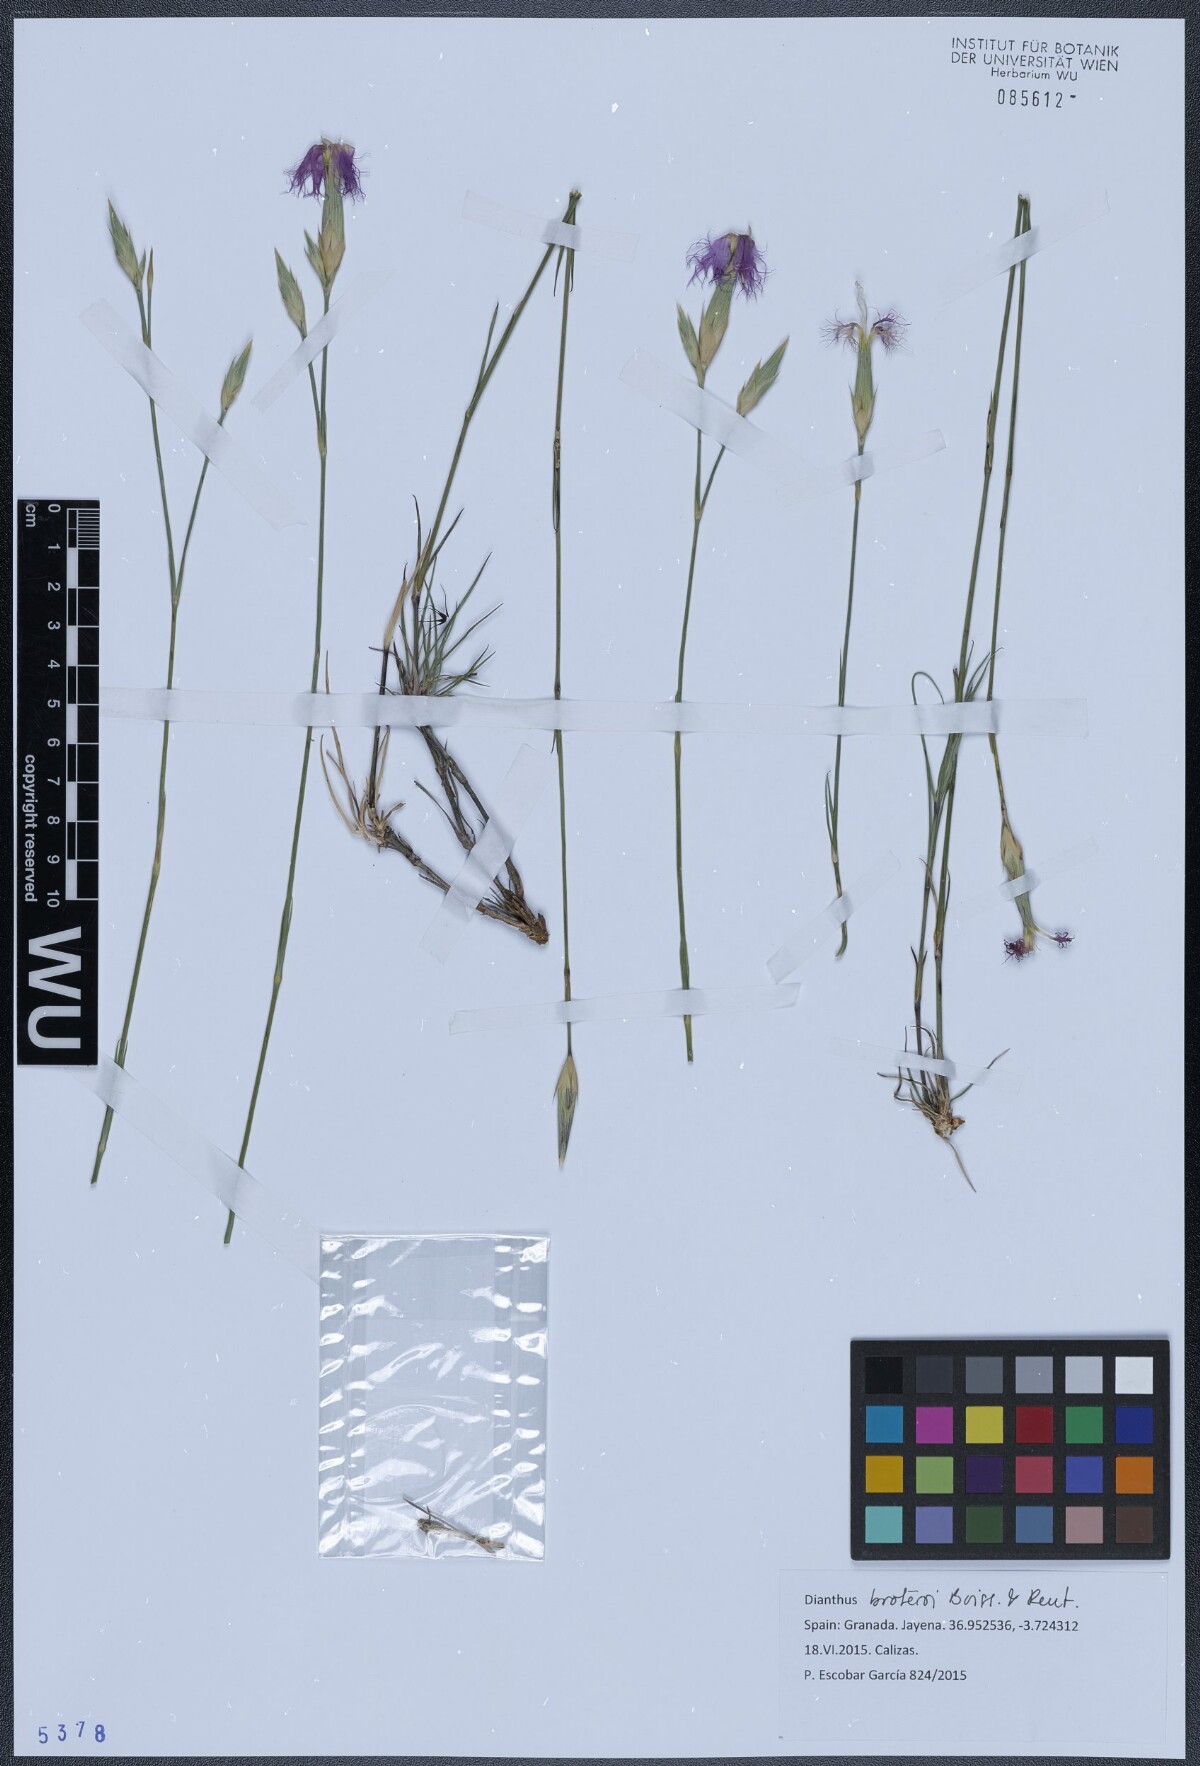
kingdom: Plantae
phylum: Tracheophyta
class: Magnoliopsida
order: Caryophyllales
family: Caryophyllaceae
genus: Dianthus
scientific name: Dianthus broteri
